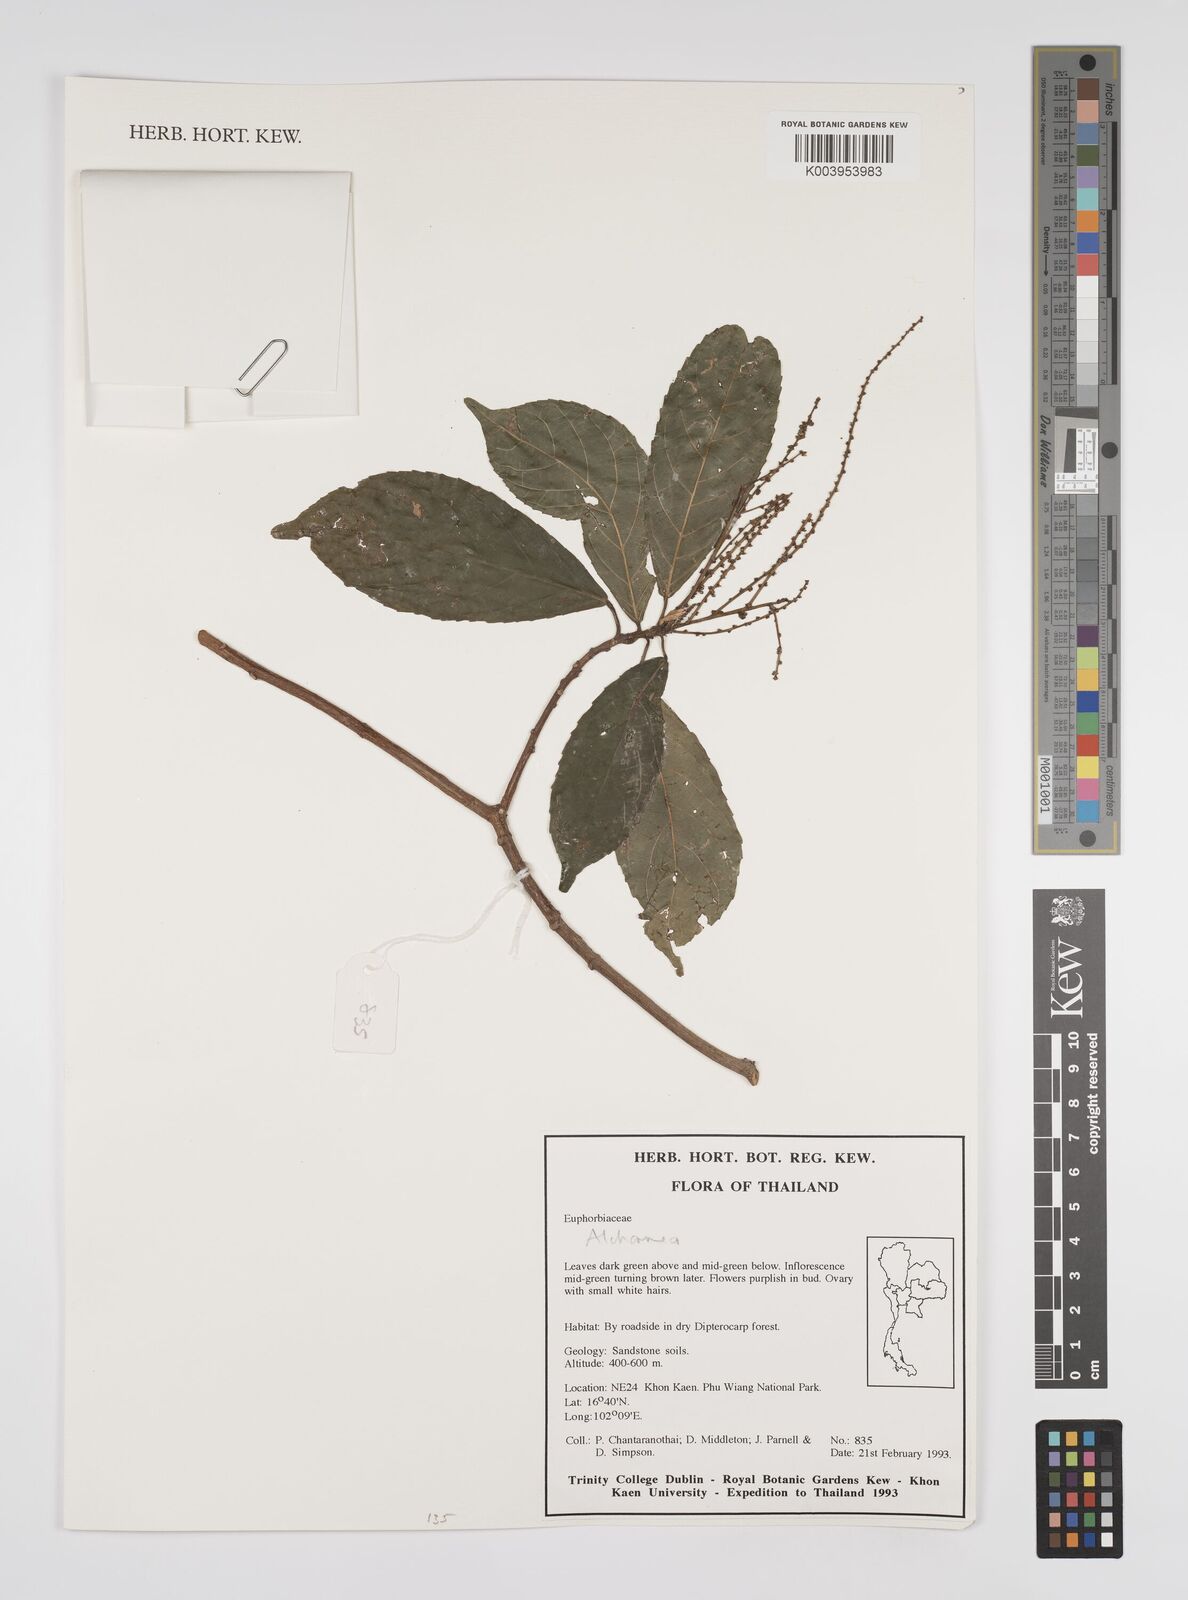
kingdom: Plantae
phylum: Tracheophyta
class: Magnoliopsida
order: Malpighiales
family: Euphorbiaceae
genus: Alchornea
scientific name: Alchornea
